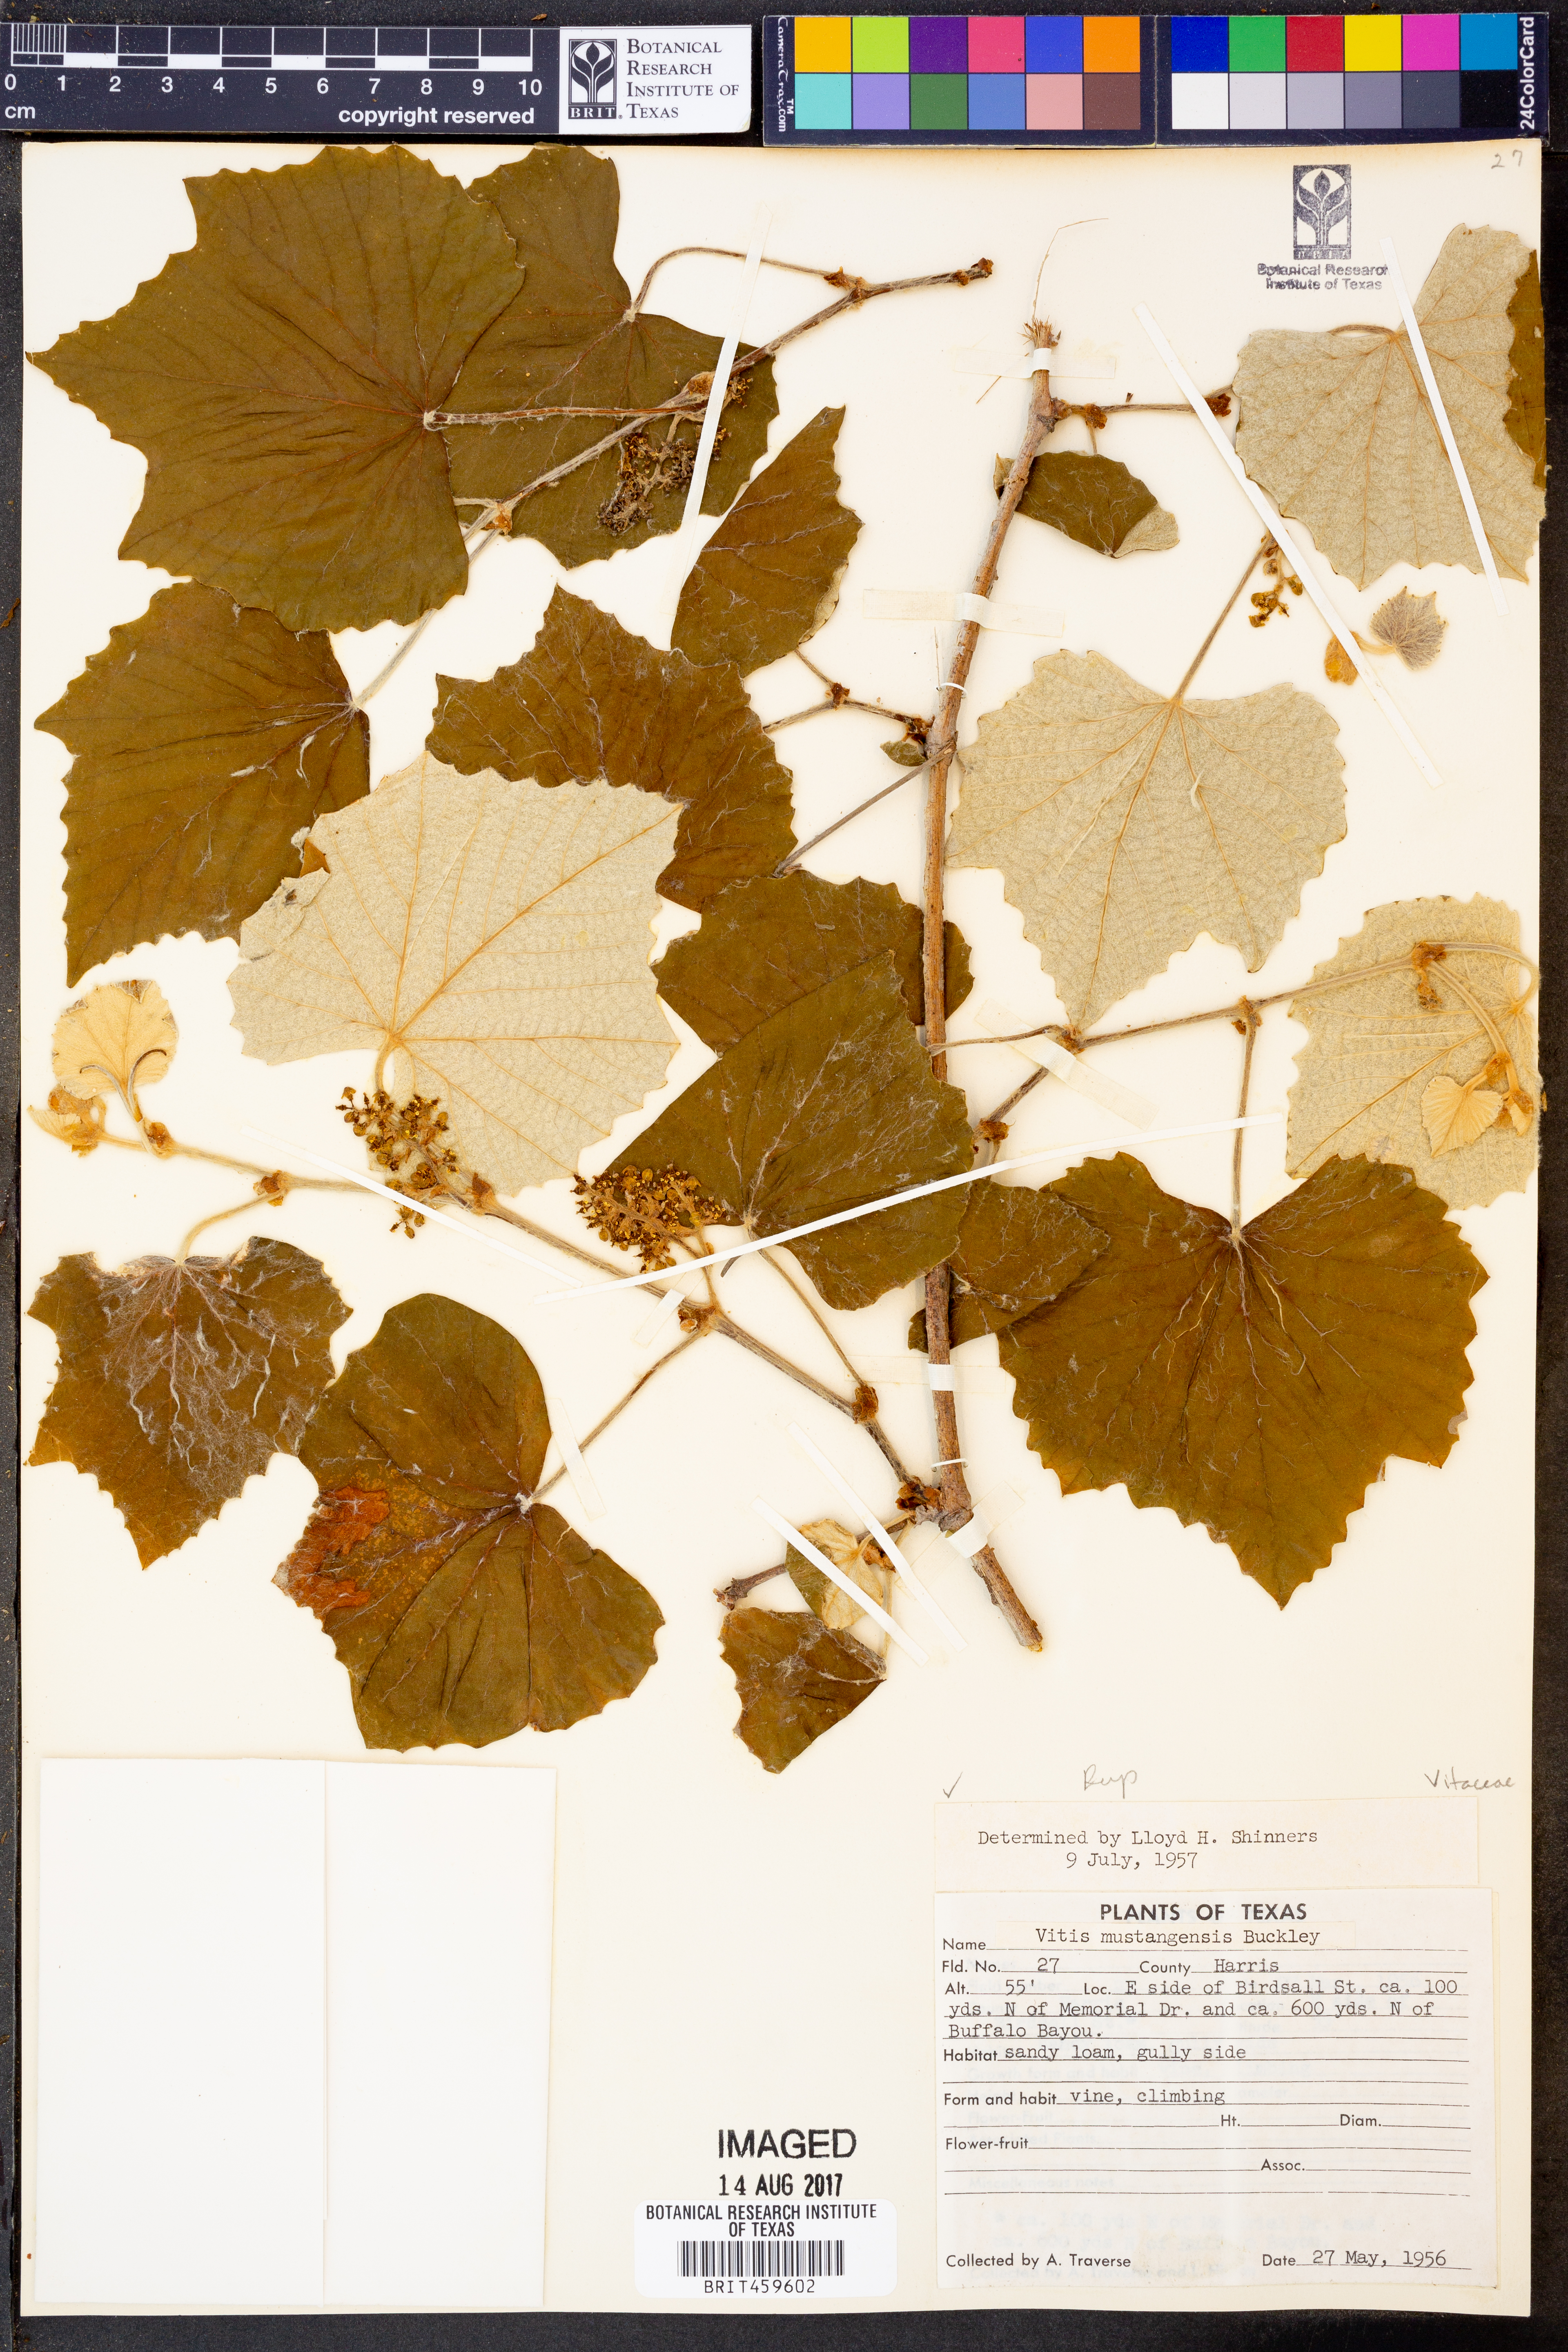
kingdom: Plantae
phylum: Tracheophyta
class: Magnoliopsida
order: Vitales
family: Vitaceae
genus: Vitis
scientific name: Vitis mustangensis
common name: Mustang grape
